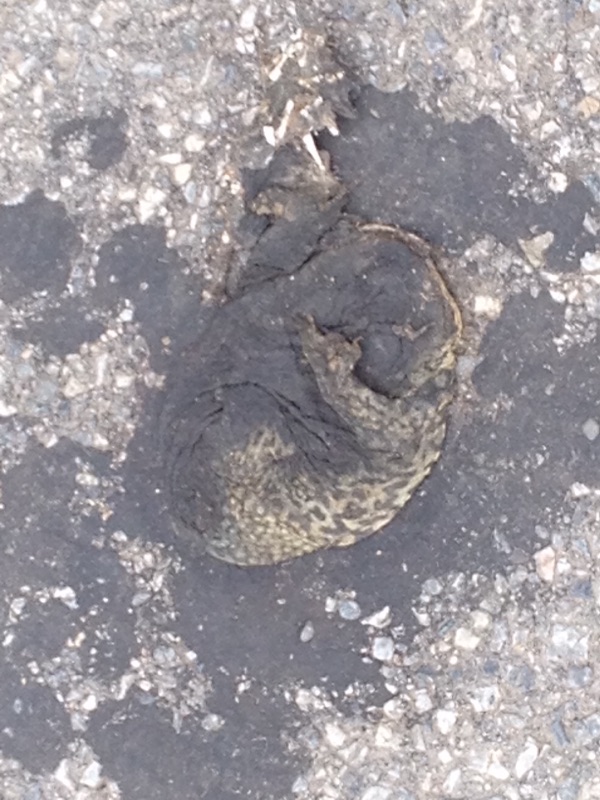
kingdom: Animalia
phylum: Chordata
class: Amphibia
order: Anura
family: Bufonidae
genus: Bufo
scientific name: Bufo bufo
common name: Common toad
